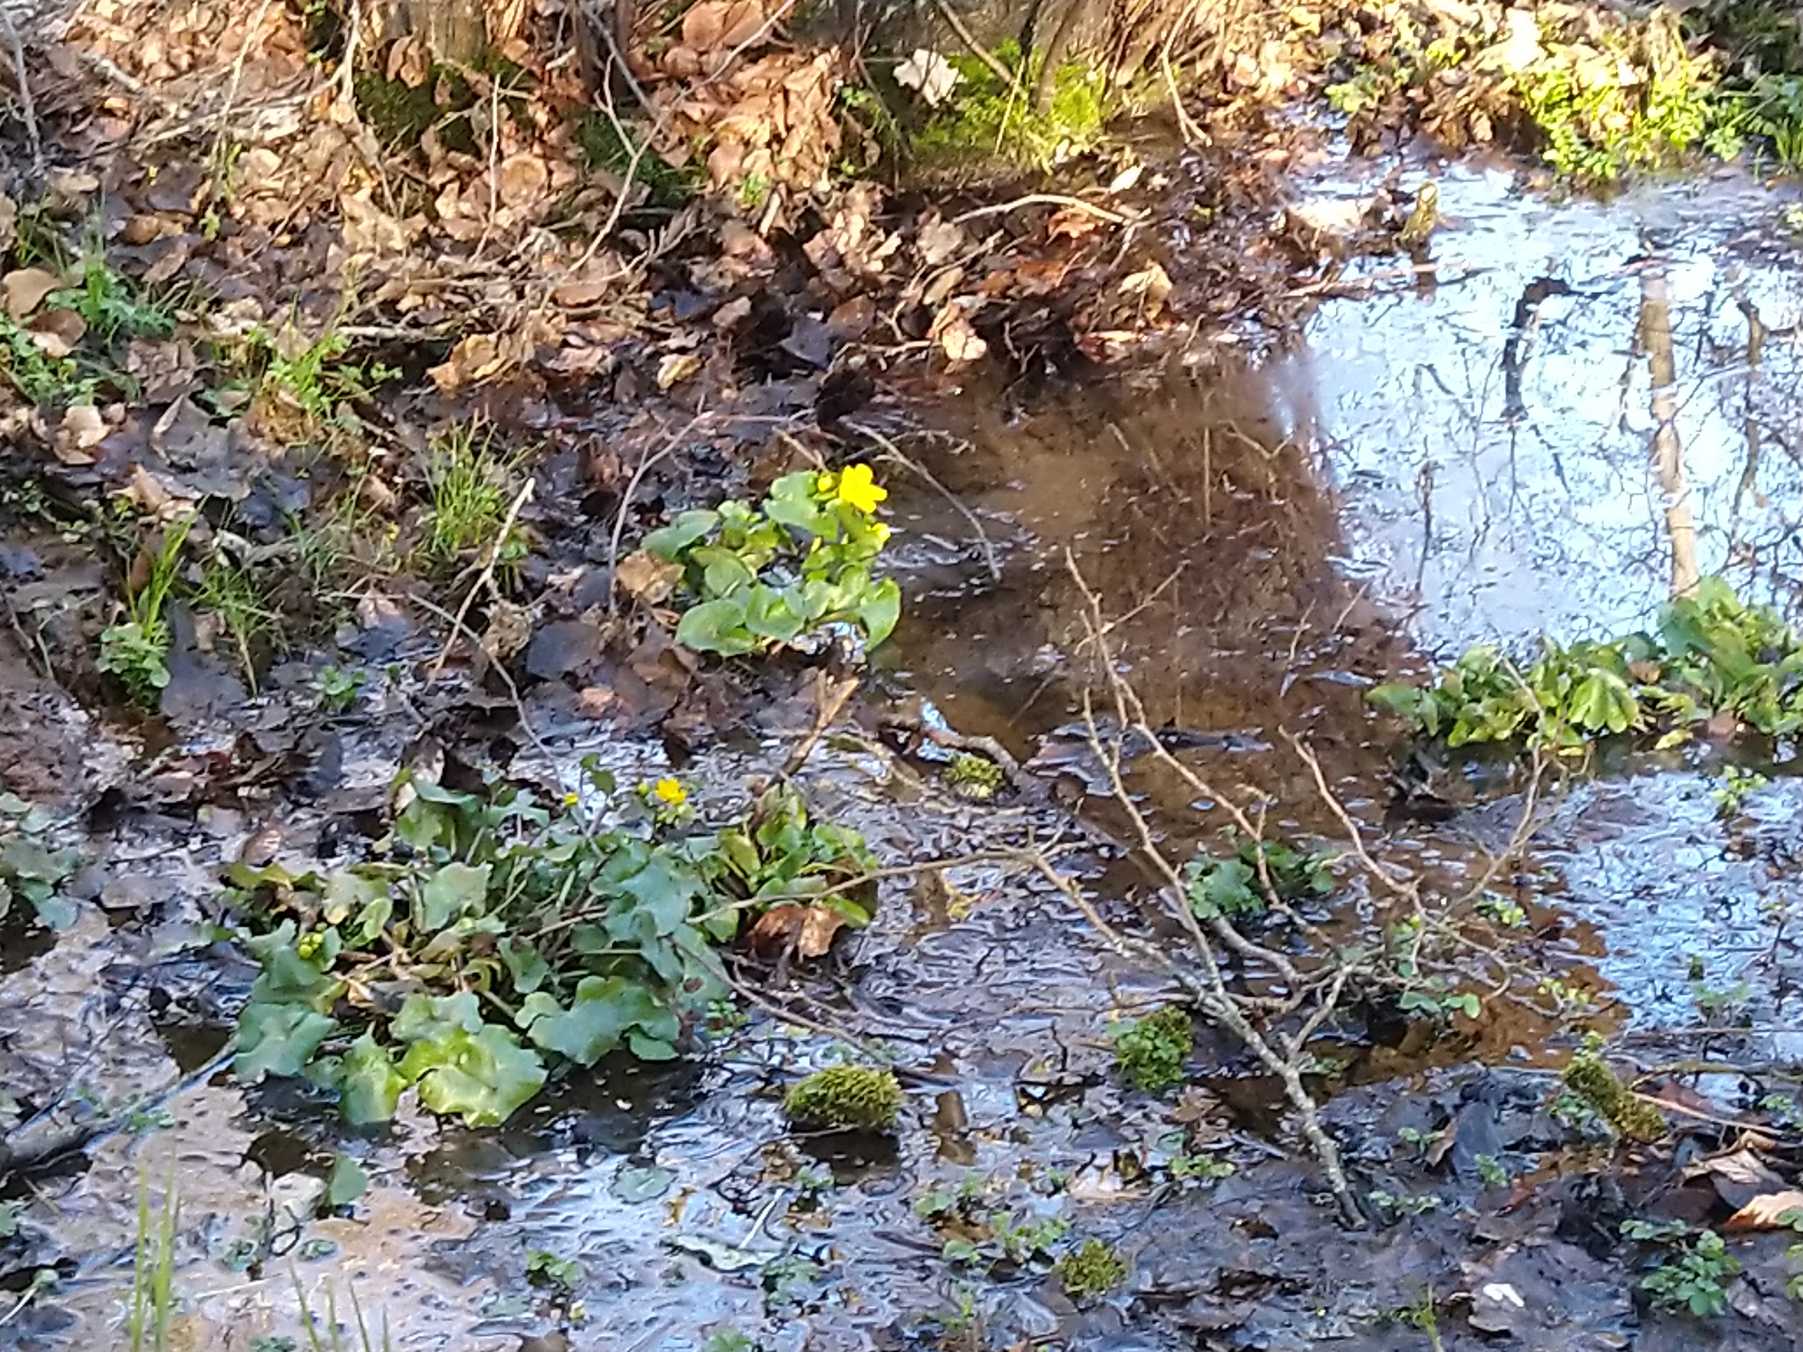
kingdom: Plantae
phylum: Tracheophyta
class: Magnoliopsida
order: Ranunculales
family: Ranunculaceae
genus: Caltha
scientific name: Caltha palustris
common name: Eng-kabbeleje
